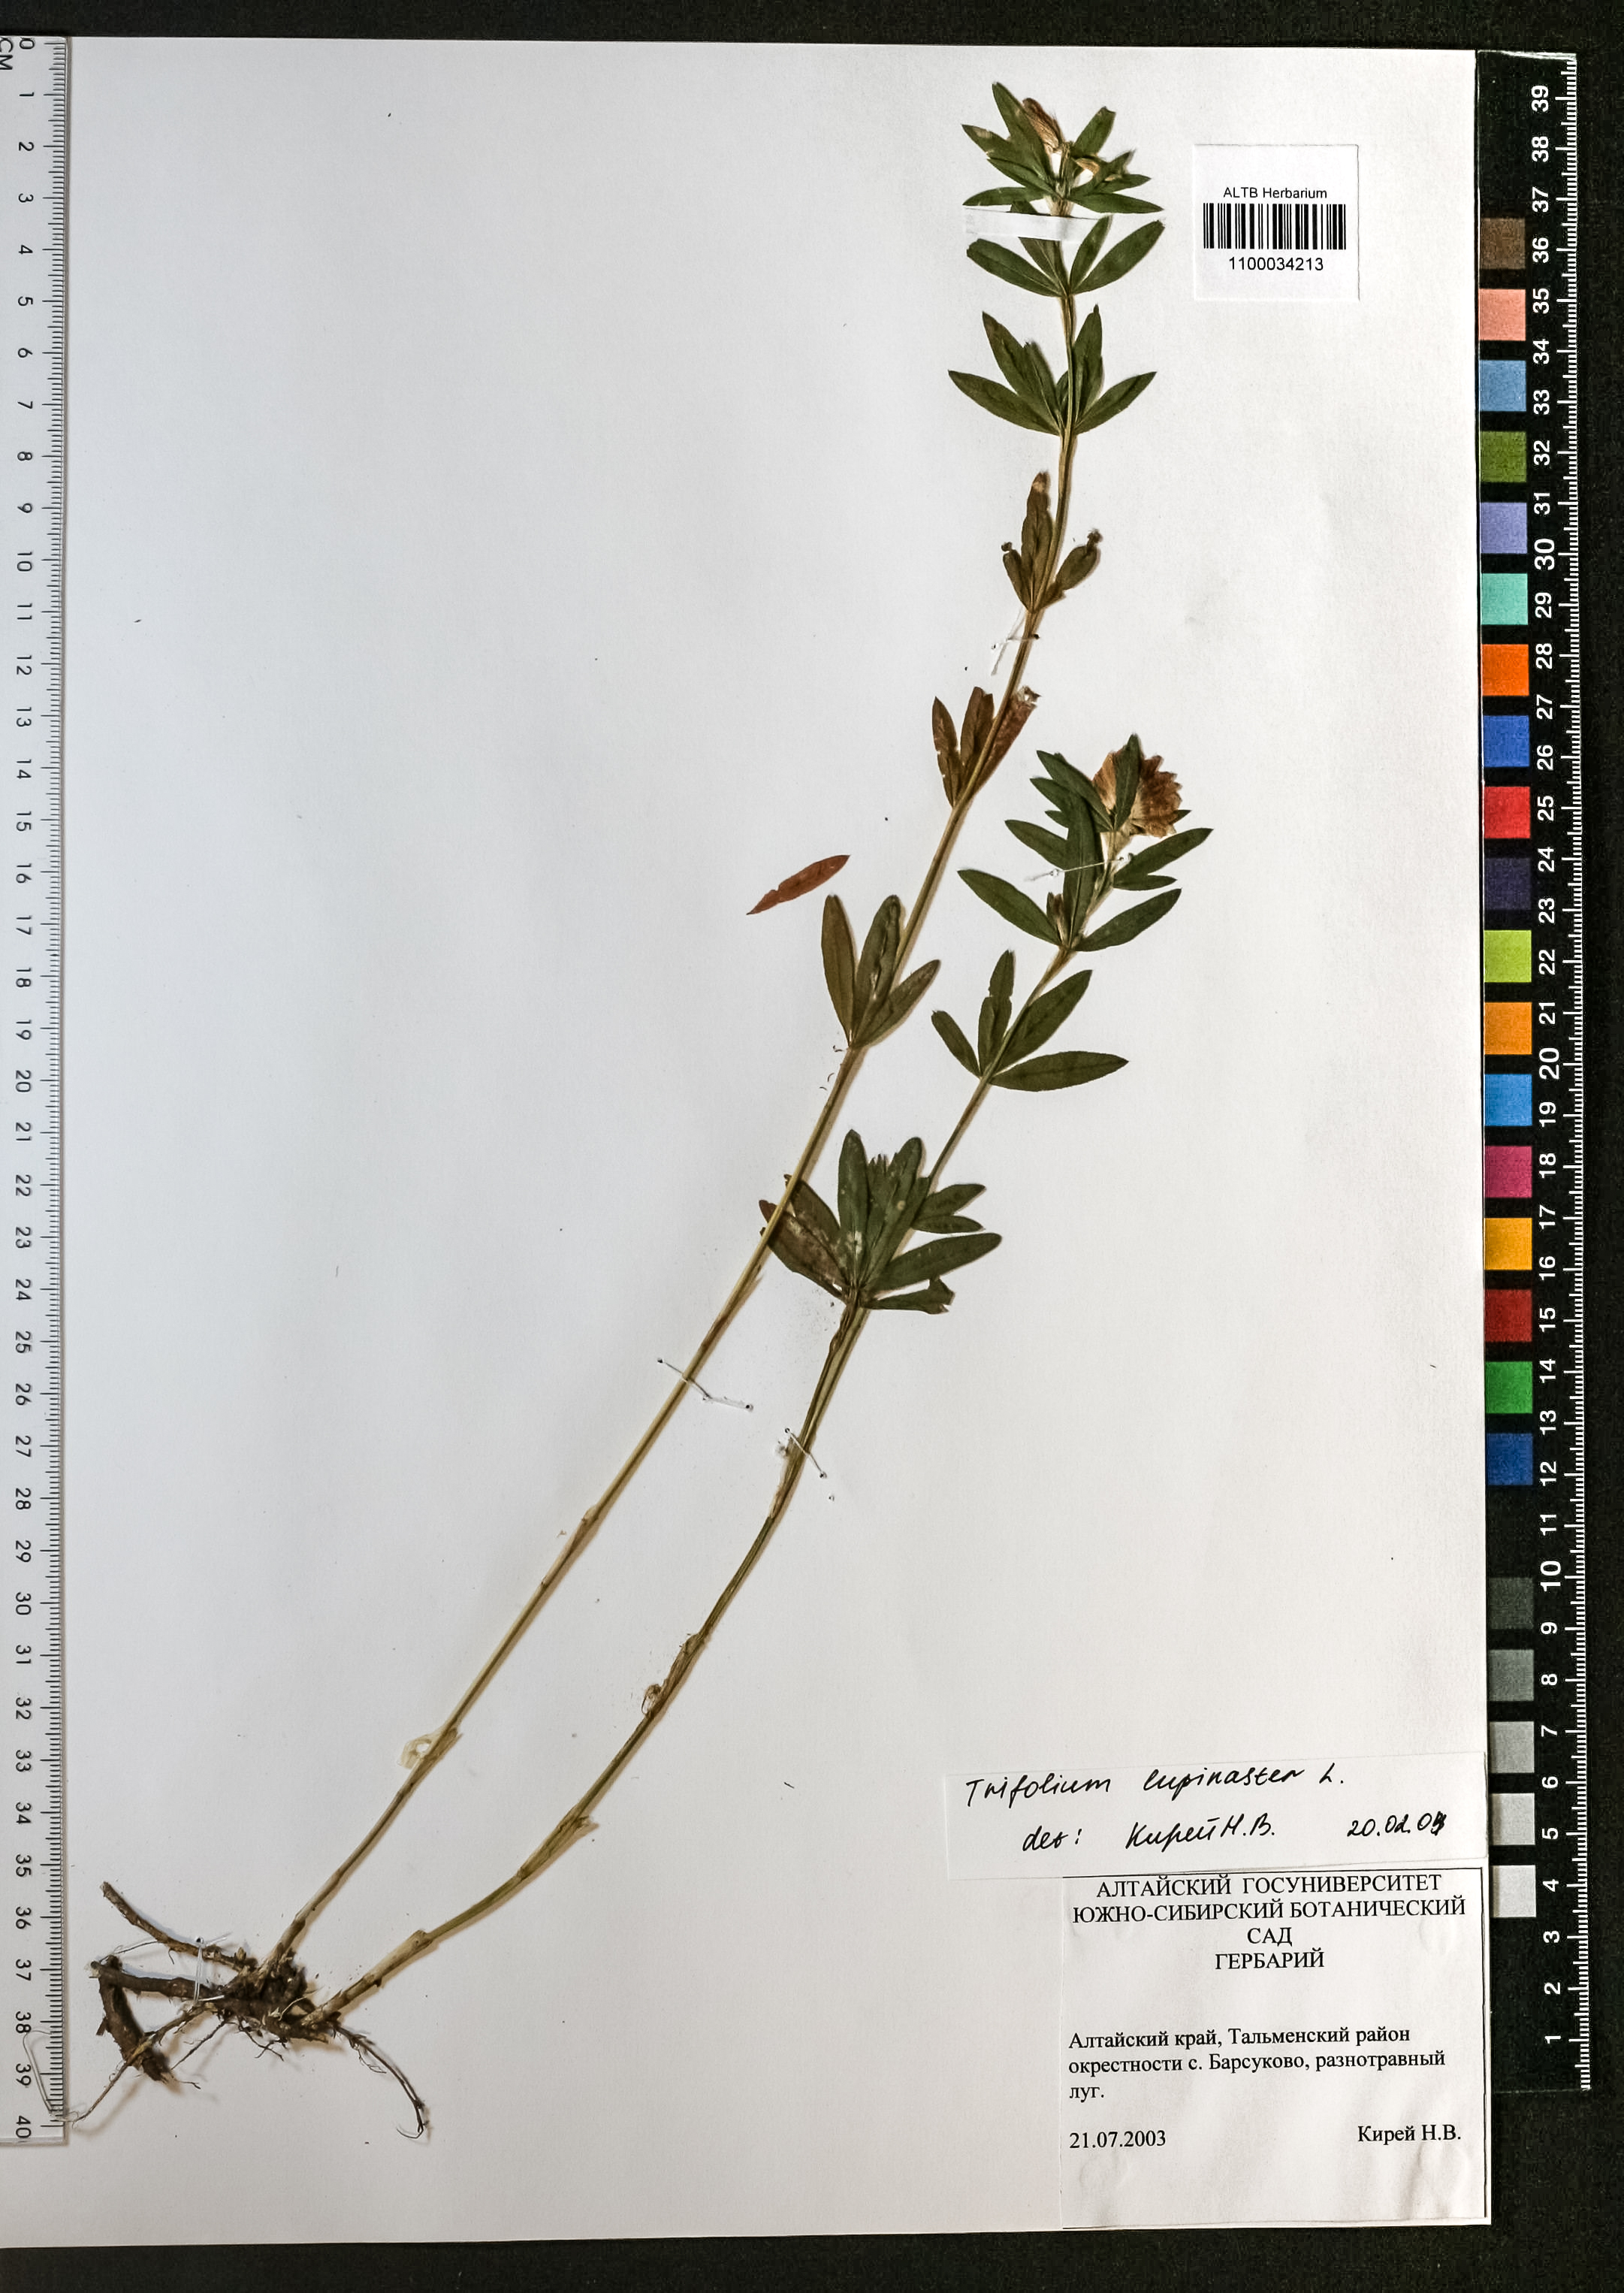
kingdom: Plantae
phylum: Tracheophyta
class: Magnoliopsida
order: Fabales
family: Fabaceae
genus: Trifolium
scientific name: Trifolium lupinaster
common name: Lupine clover
